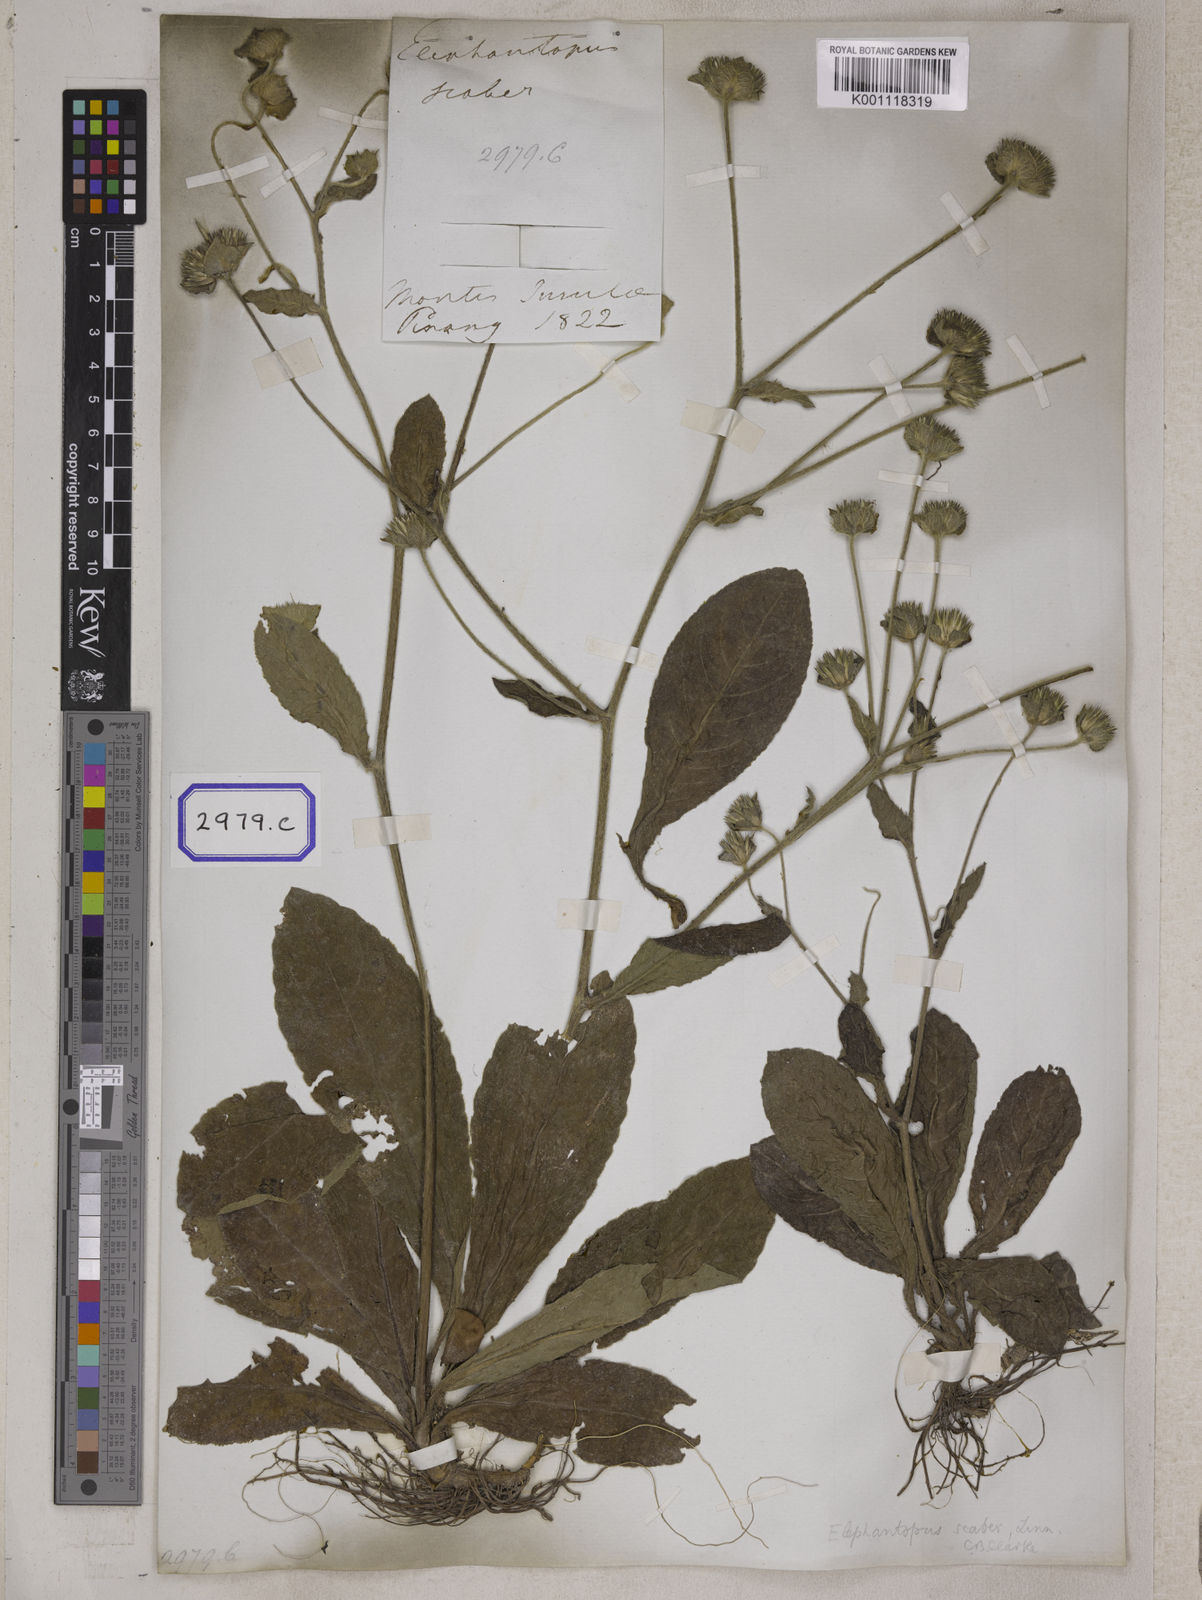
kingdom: Plantae
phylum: Tracheophyta
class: Magnoliopsida
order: Asterales
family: Asteraceae
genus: Elephantopus
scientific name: Elephantopus scaber
